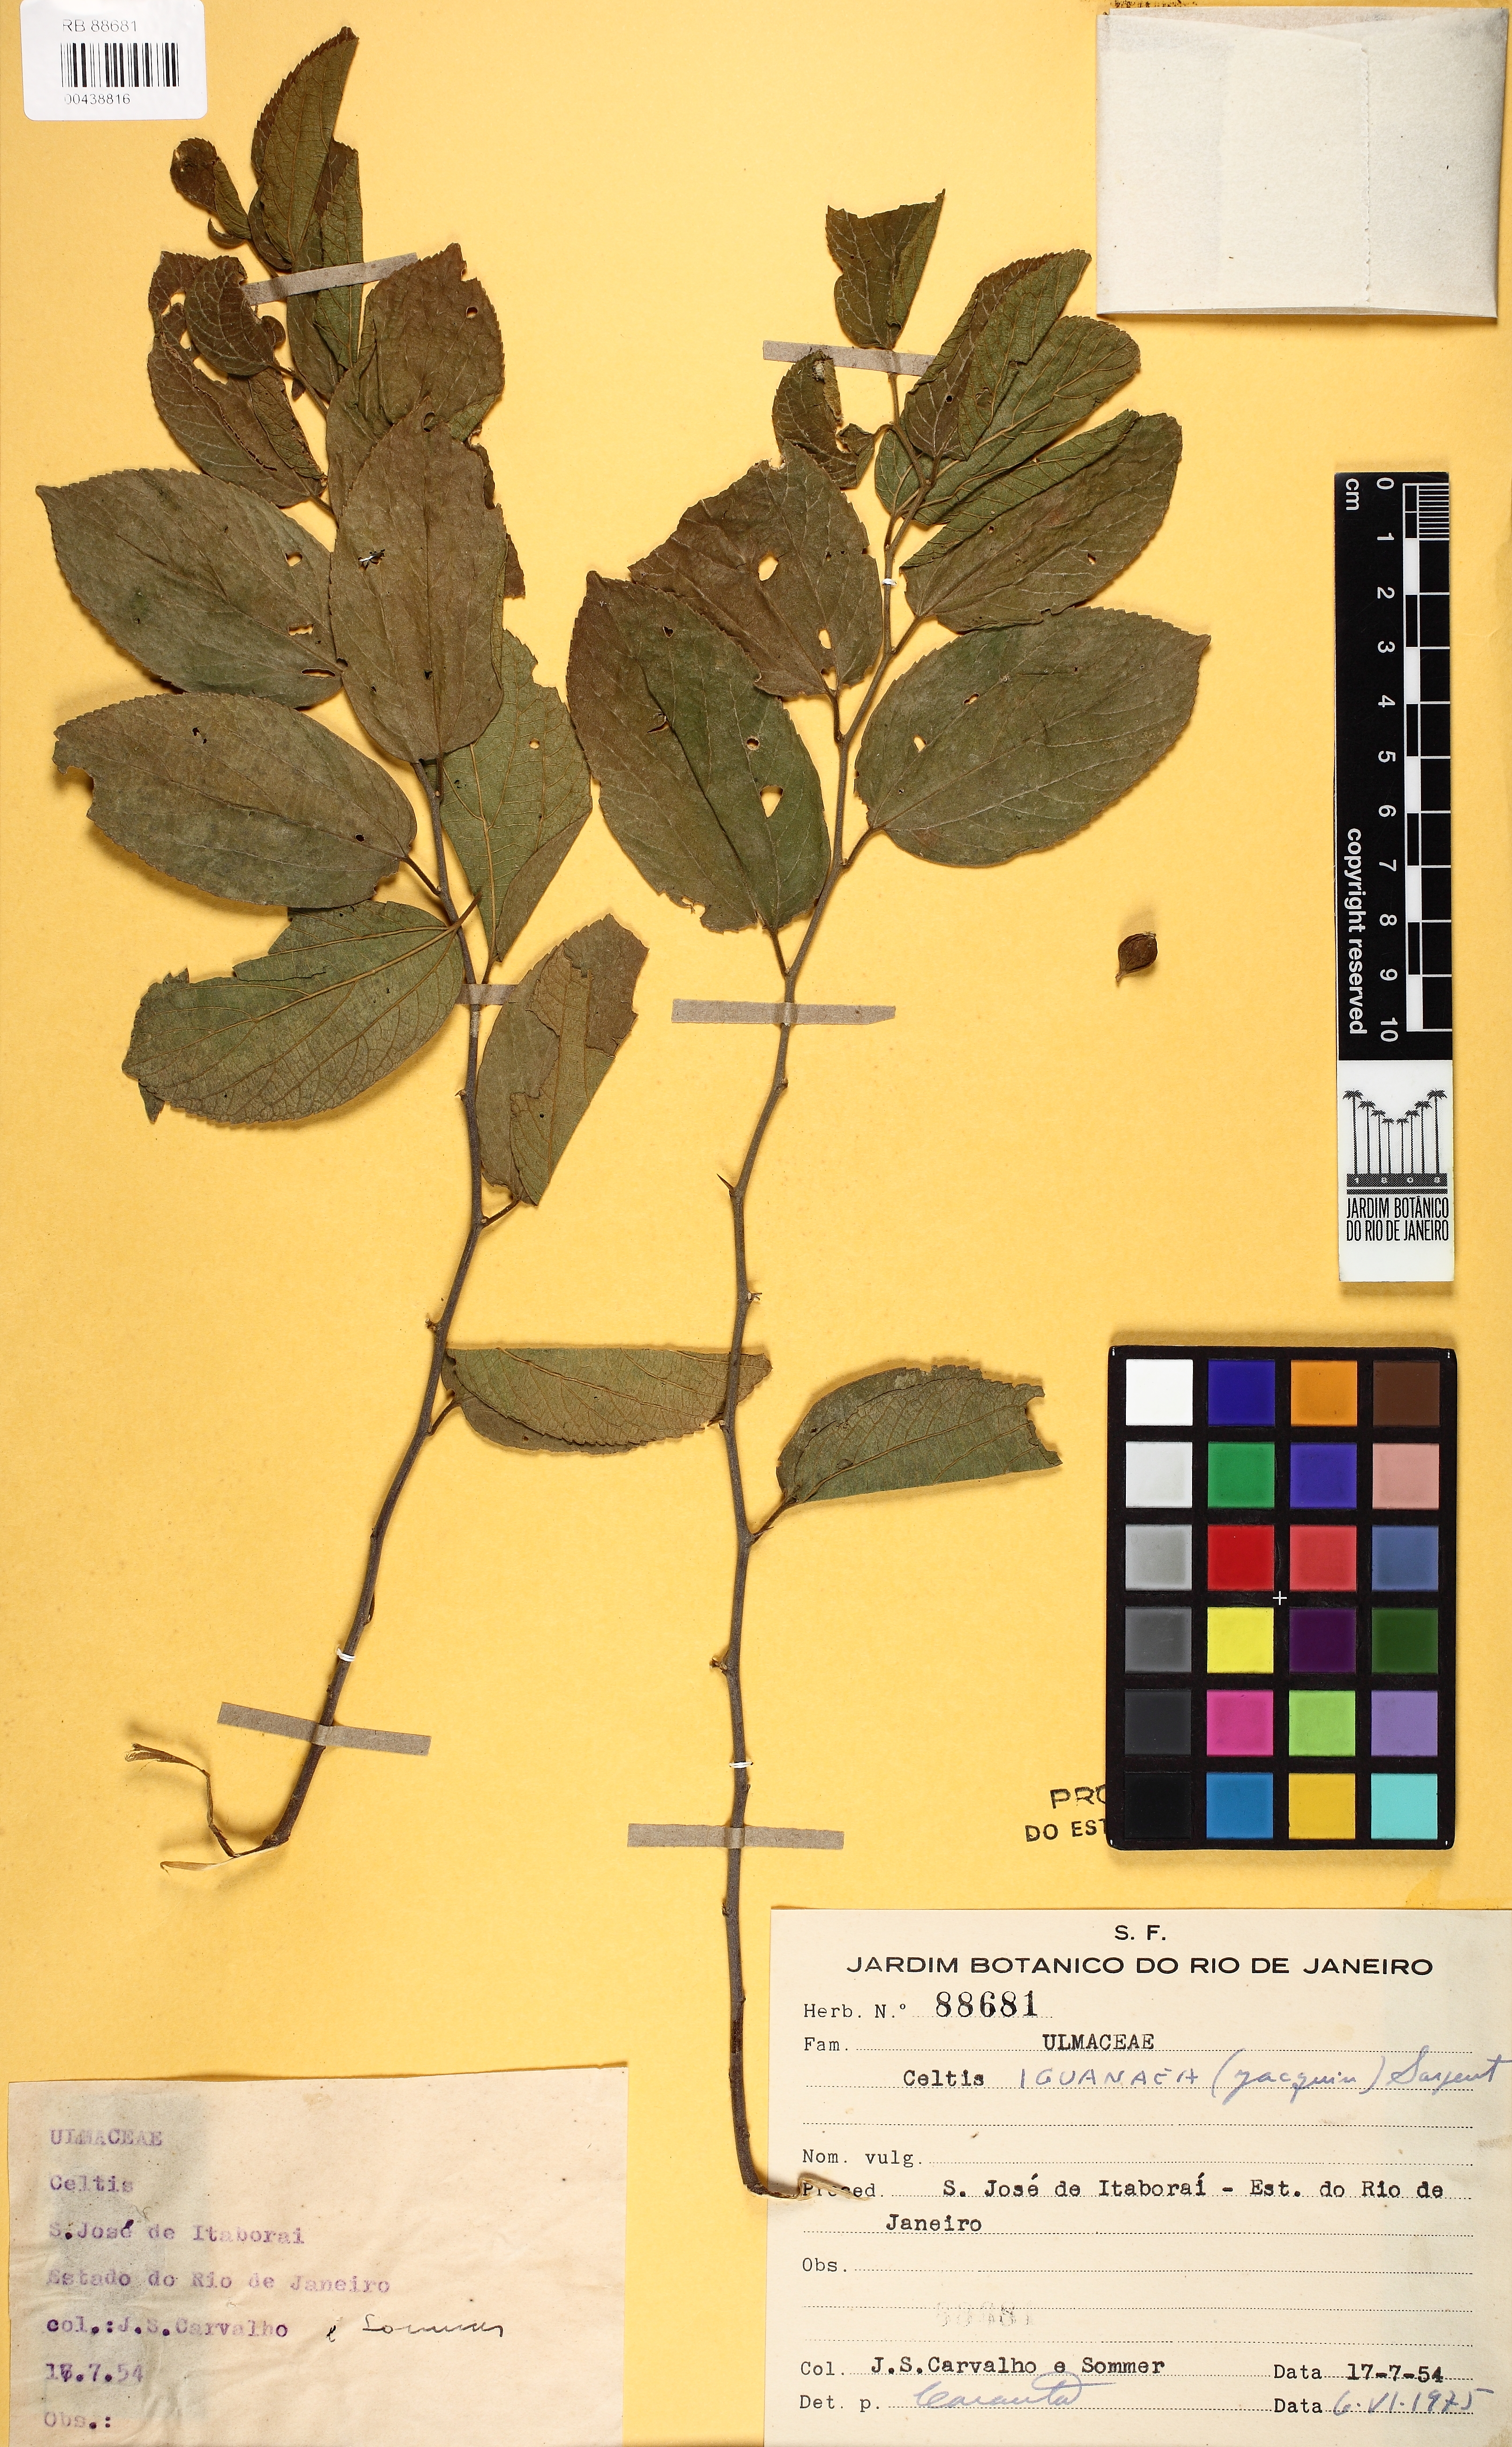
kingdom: Plantae
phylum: Tracheophyta
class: Magnoliopsida
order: Rosales
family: Cannabaceae
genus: Celtis
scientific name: Celtis iguanaea
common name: Iguana hackberry
